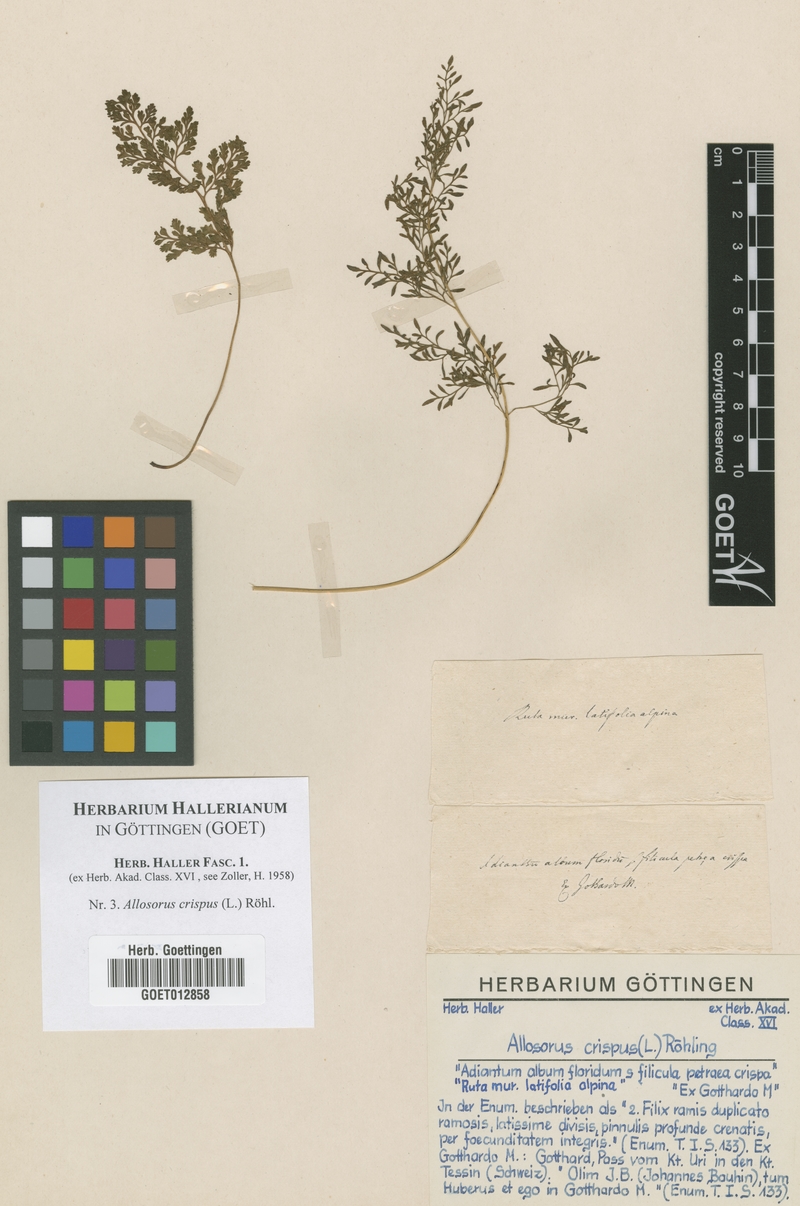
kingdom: Plantae
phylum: Tracheophyta
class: Polypodiopsida
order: Polypodiales
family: Pteridaceae
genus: Cryptogramma
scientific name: Cryptogramma crispa
